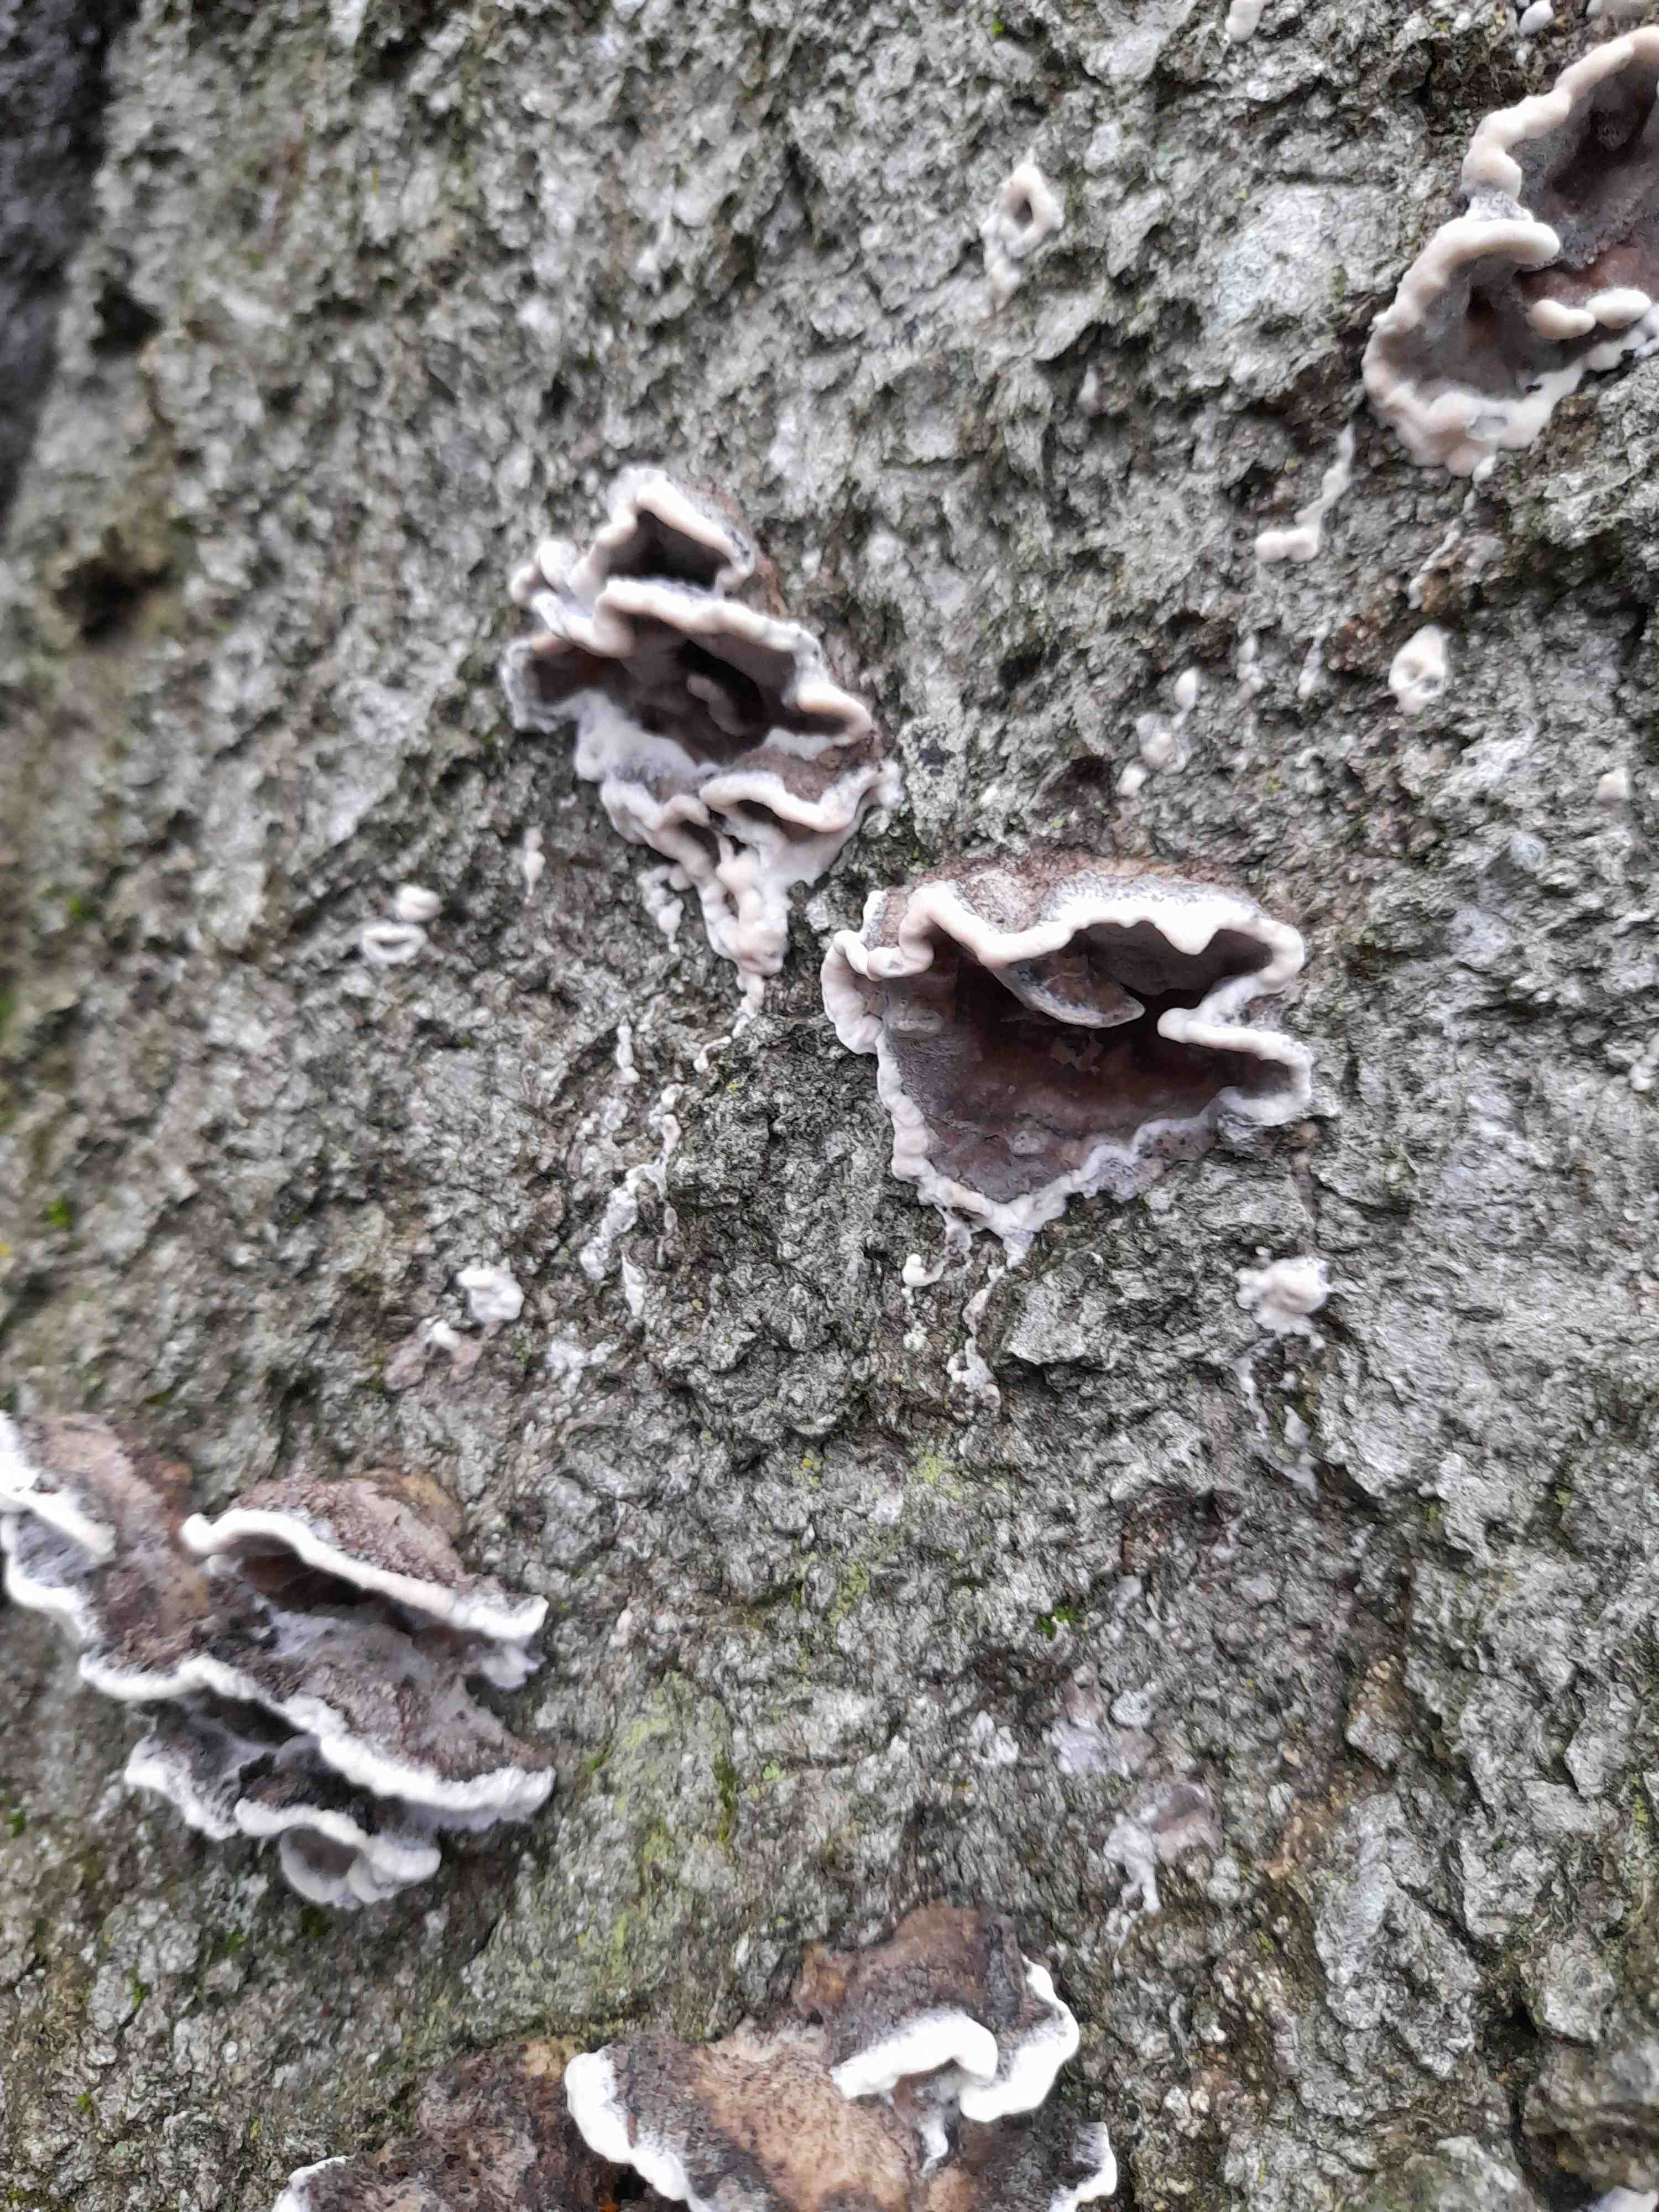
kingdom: Fungi
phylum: Basidiomycota
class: Agaricomycetes
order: Polyporales
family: Phanerochaetaceae
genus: Bjerkandera
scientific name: Bjerkandera adusta
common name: sveden sodporesvamp
